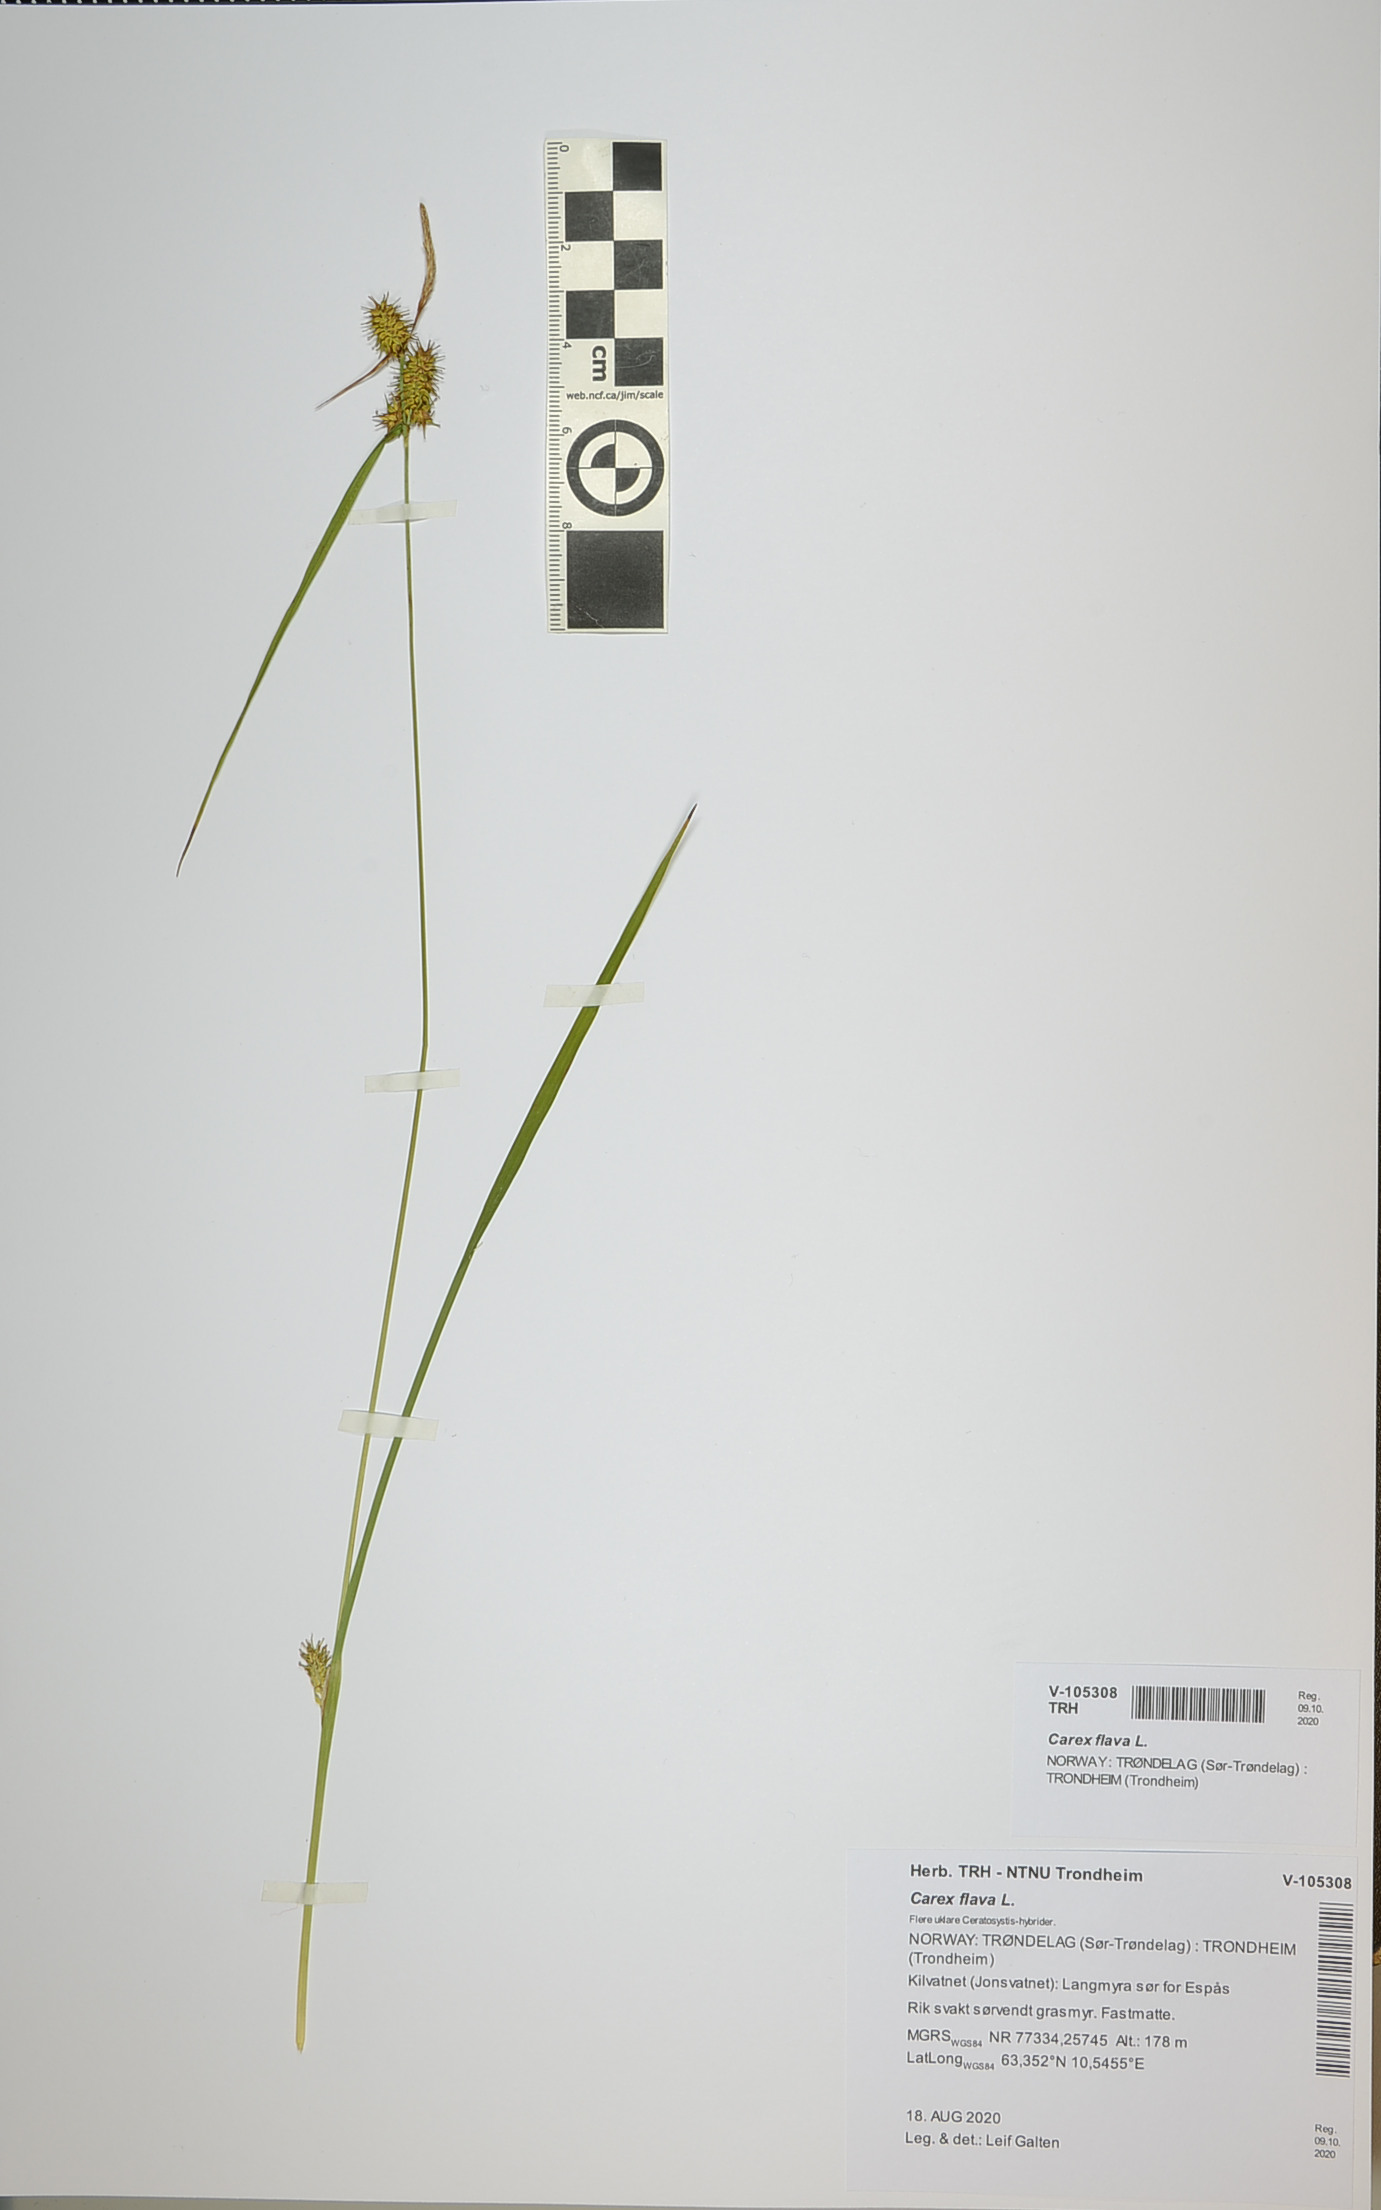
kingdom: Plantae
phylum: Tracheophyta
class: Liliopsida
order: Poales
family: Cyperaceae
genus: Carex
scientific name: Carex flava
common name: Large yellow-sedge
